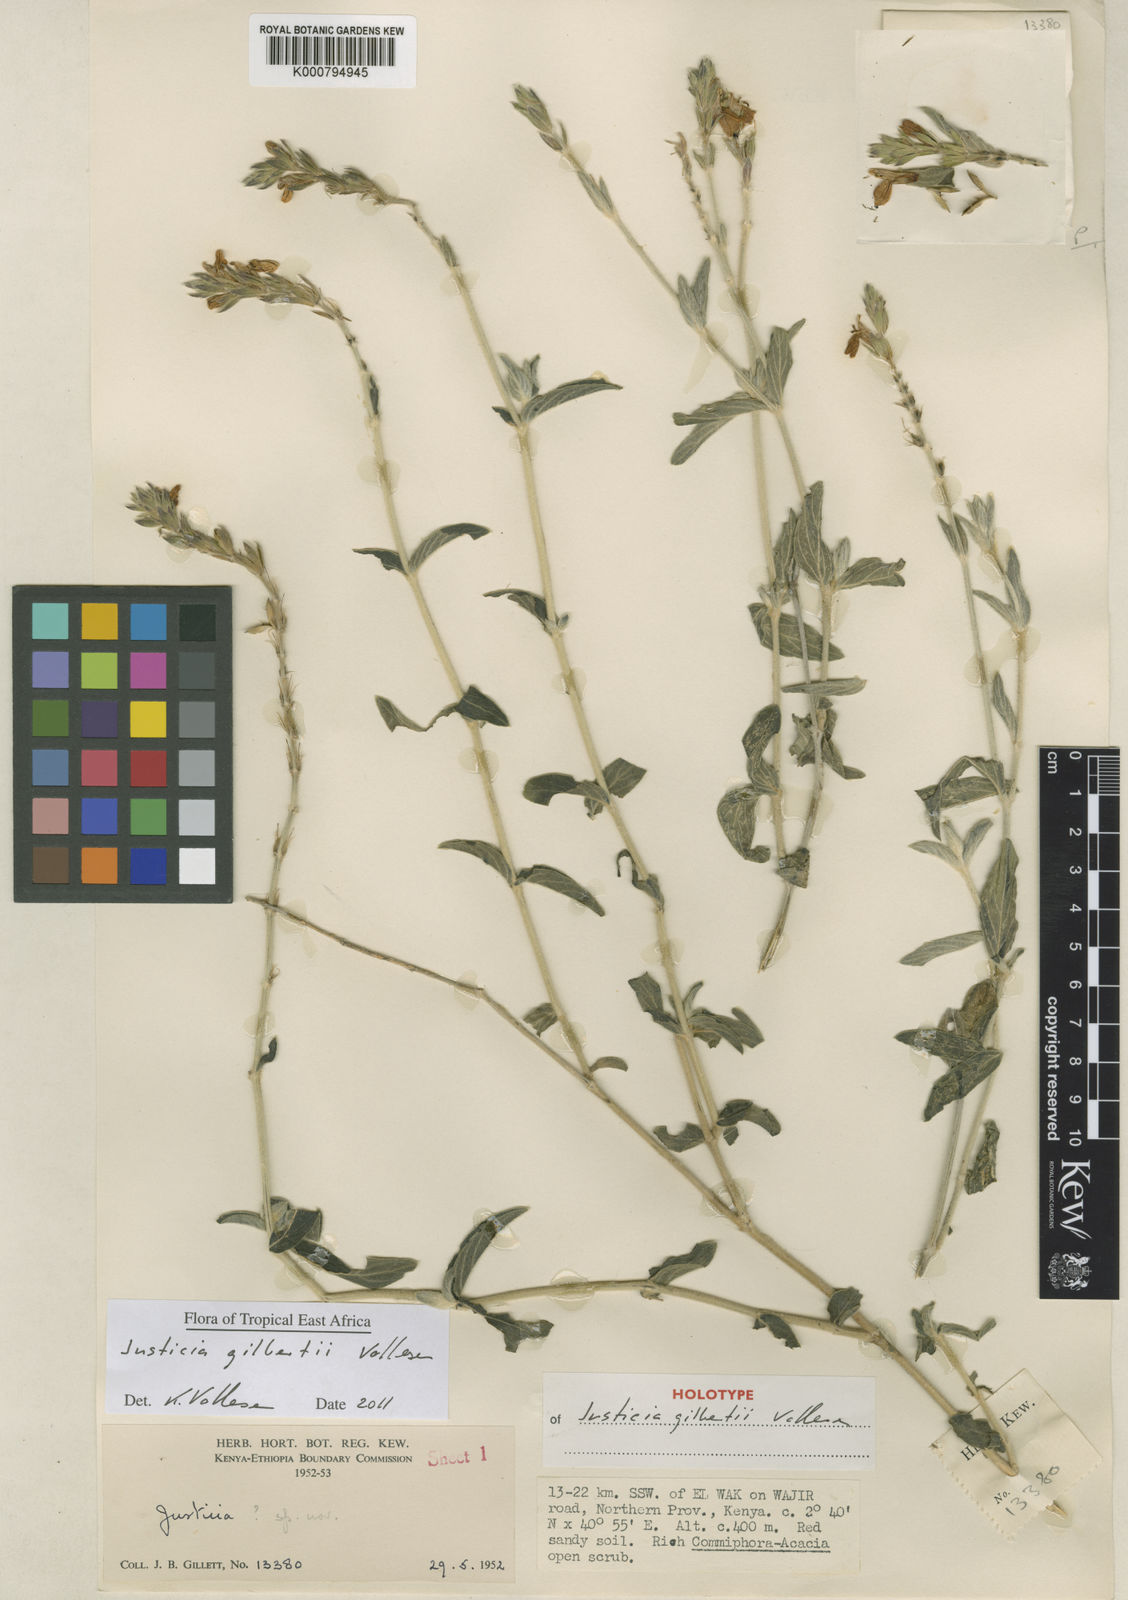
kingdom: Plantae
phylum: Tracheophyta
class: Magnoliopsida
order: Lamiales
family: Acanthaceae
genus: Justicia
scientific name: Justicia gilbertii
